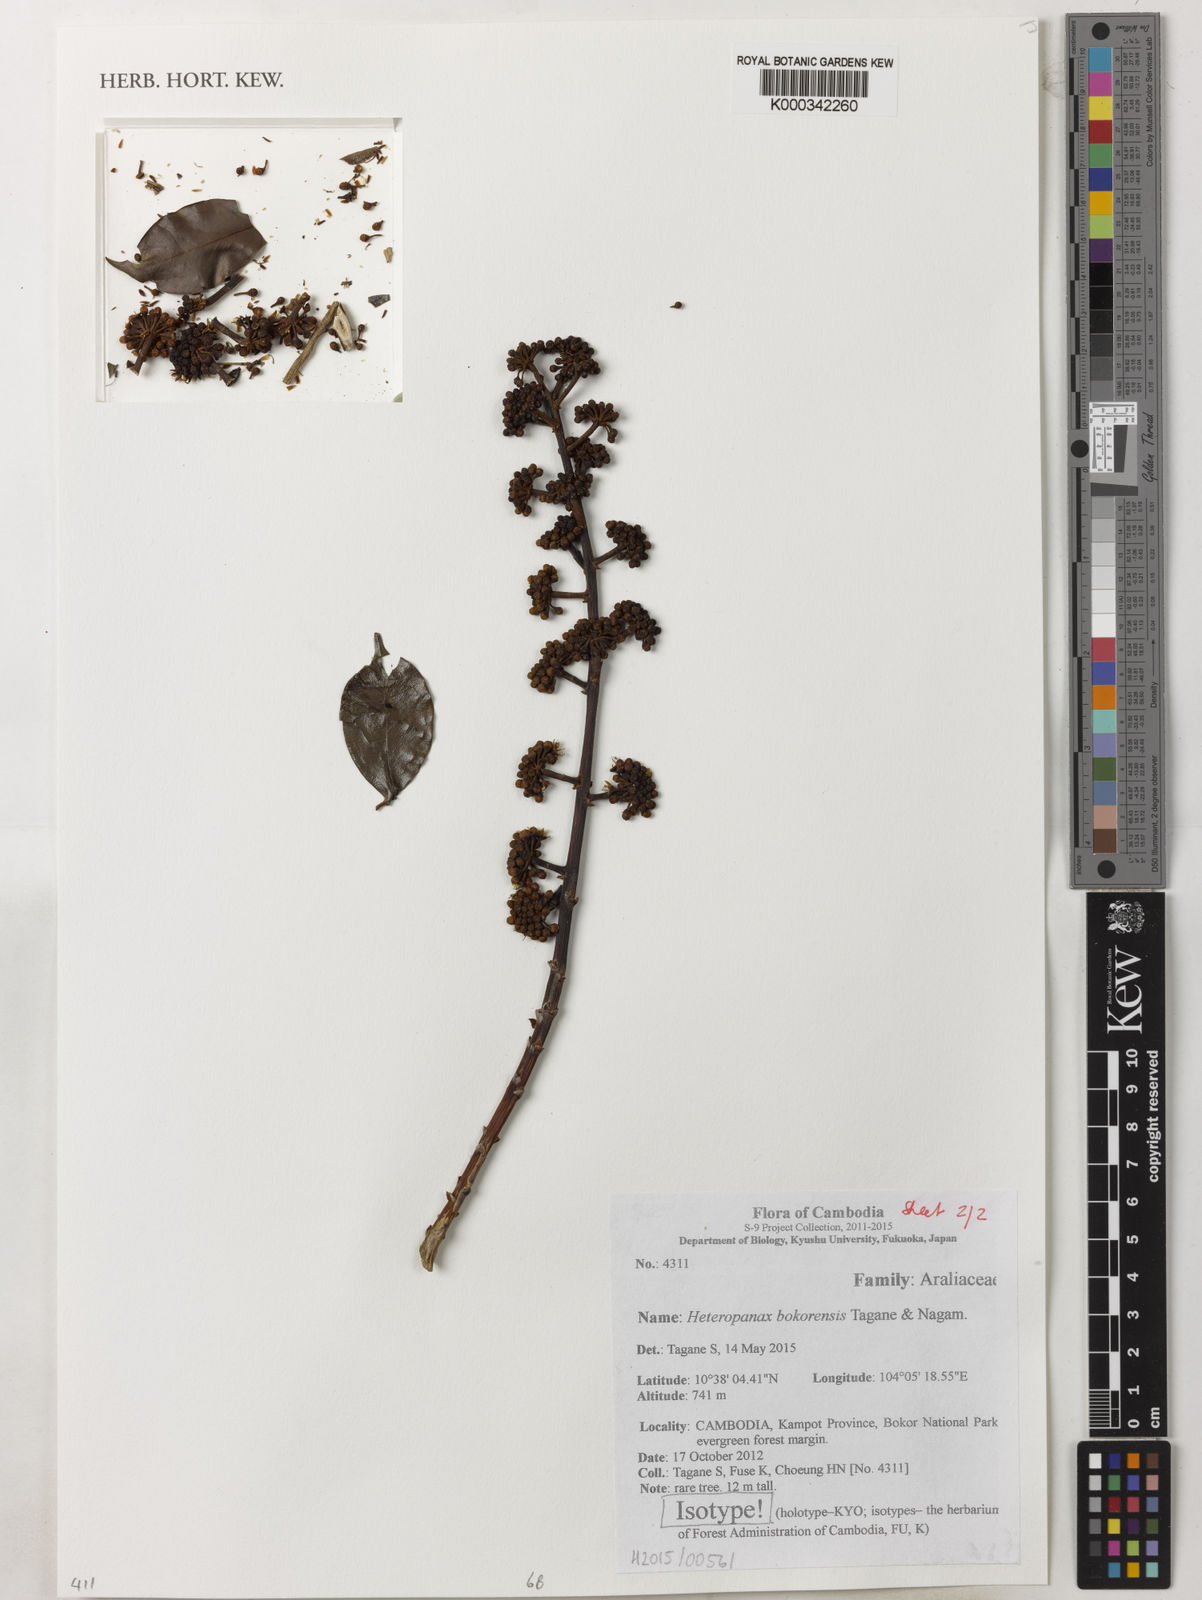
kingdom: Plantae
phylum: Tracheophyta
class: Magnoliopsida
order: Apiales
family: Araliaceae
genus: Heteropanax
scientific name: Heteropanax bokorensis
